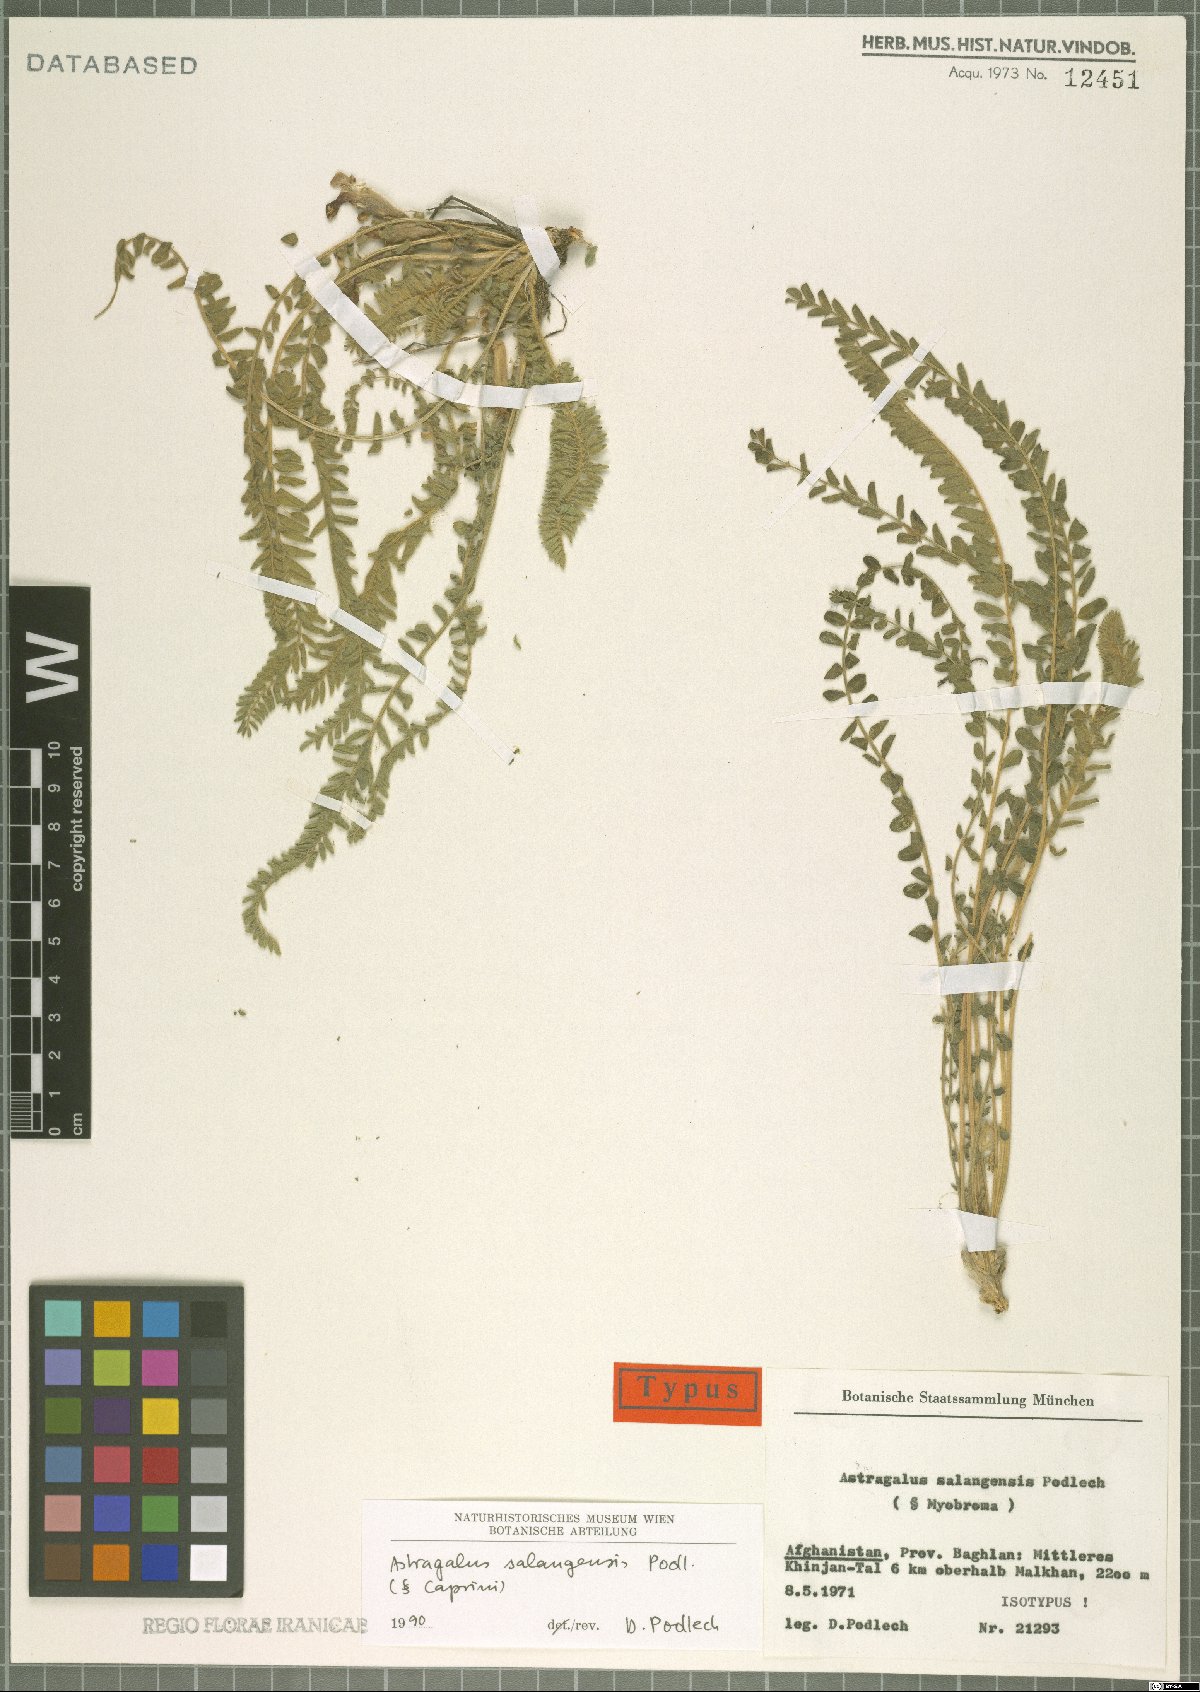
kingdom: Plantae
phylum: Tracheophyta
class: Magnoliopsida
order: Fabales
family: Fabaceae
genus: Astragalus
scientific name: Astragalus salangensis
